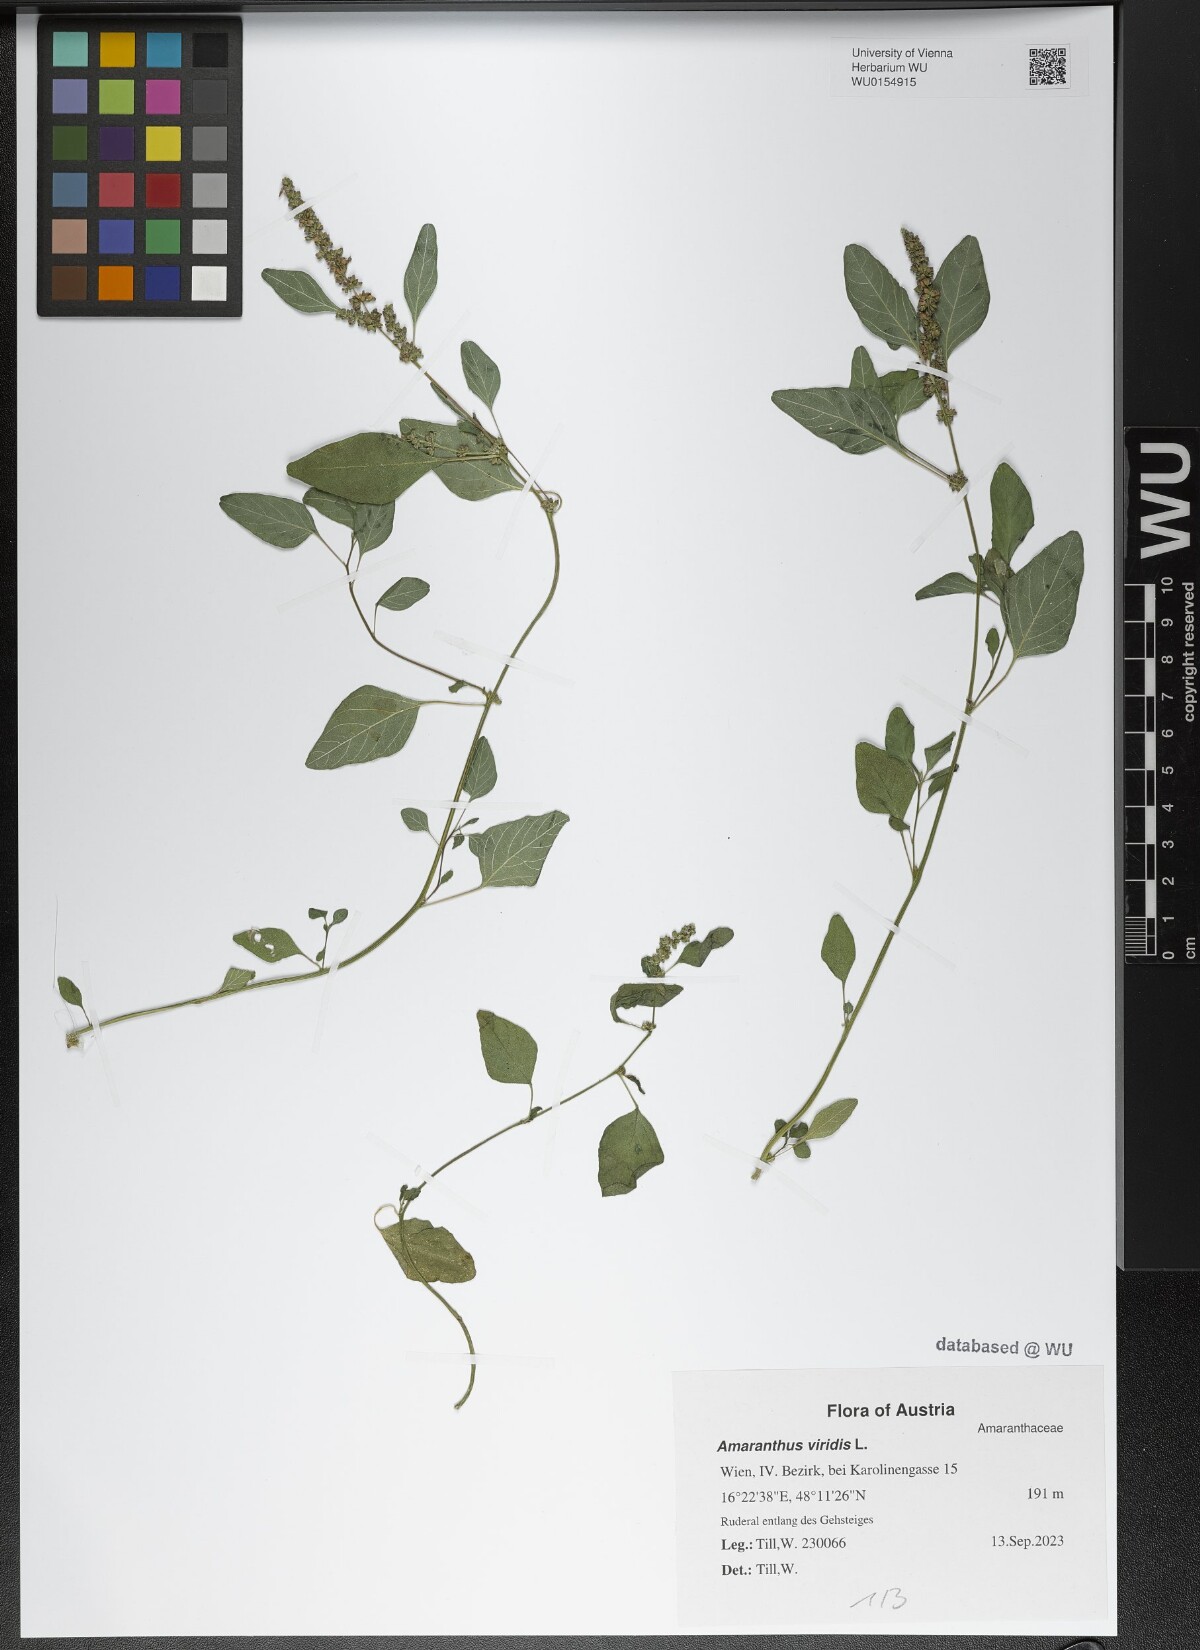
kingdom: Plantae
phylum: Tracheophyta
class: Magnoliopsida
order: Caryophyllales
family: Amaranthaceae
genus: Amaranthus
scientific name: Amaranthus viridis
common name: Slender amaranth
